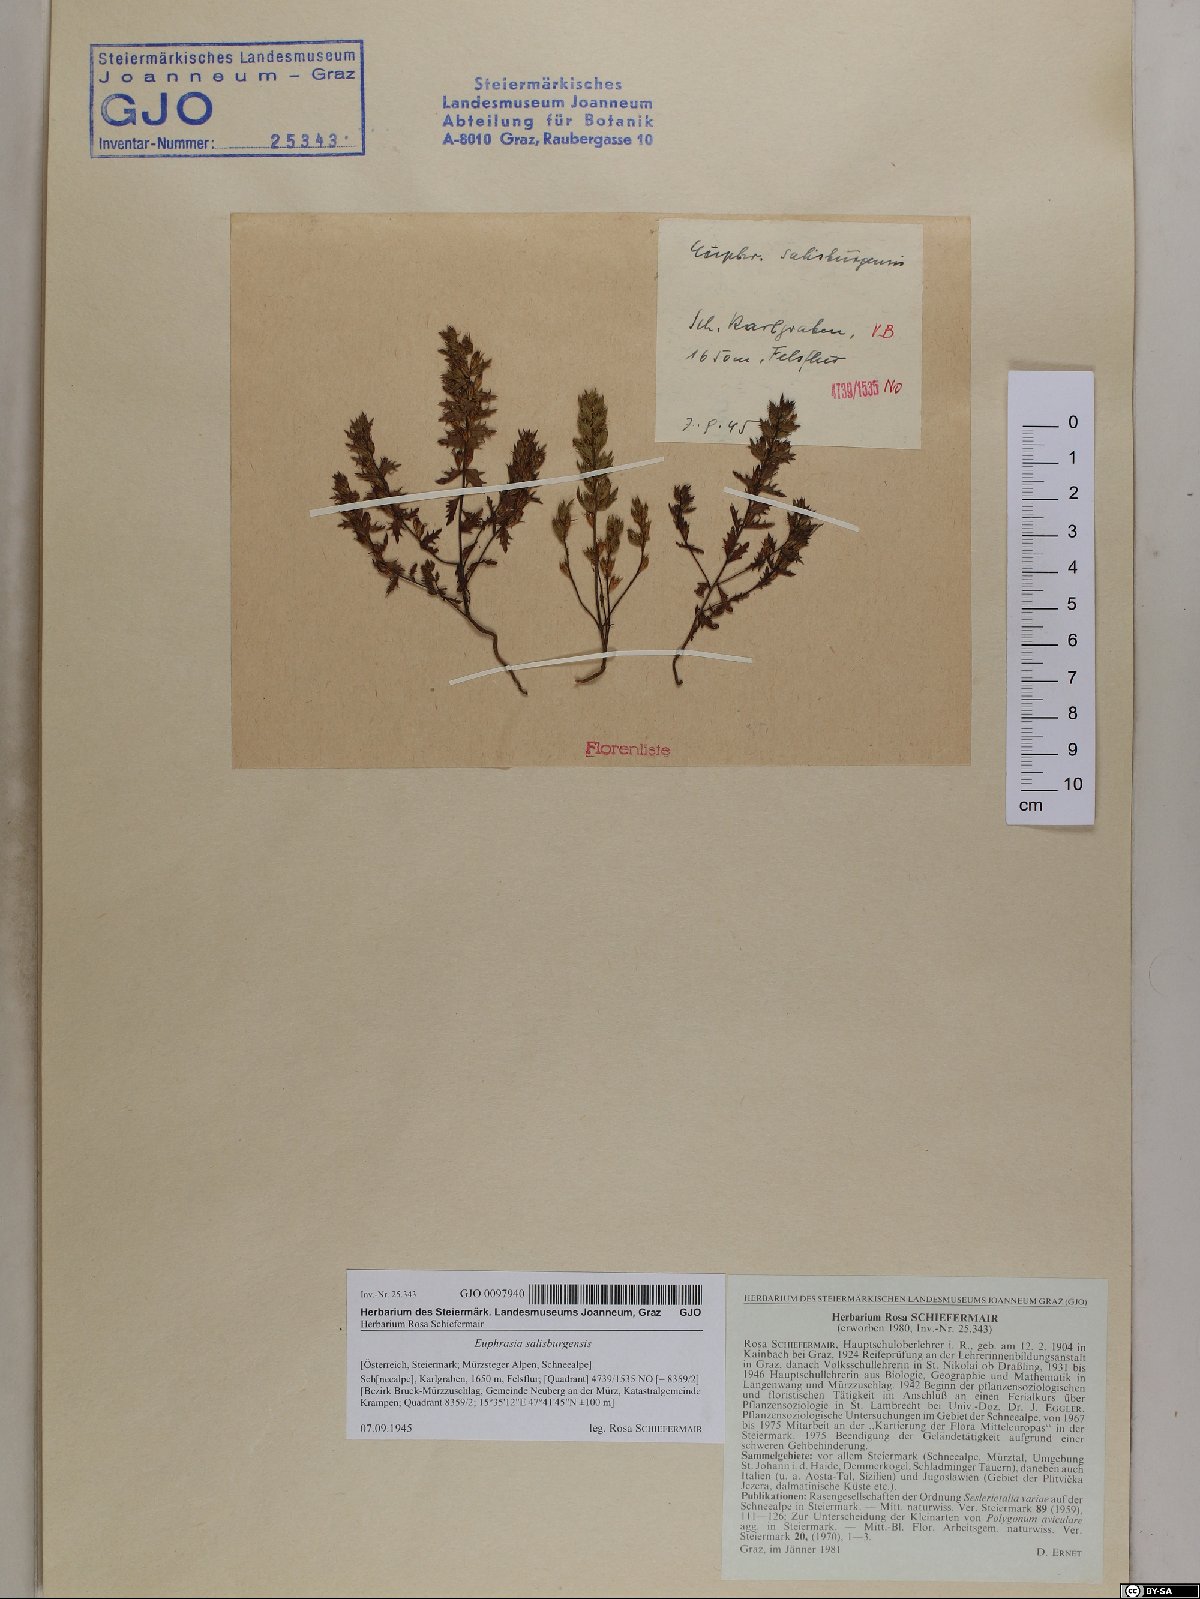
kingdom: Plantae
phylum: Tracheophyta
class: Magnoliopsida
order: Lamiales
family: Orobanchaceae
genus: Euphrasia
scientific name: Euphrasia salisburgensis
